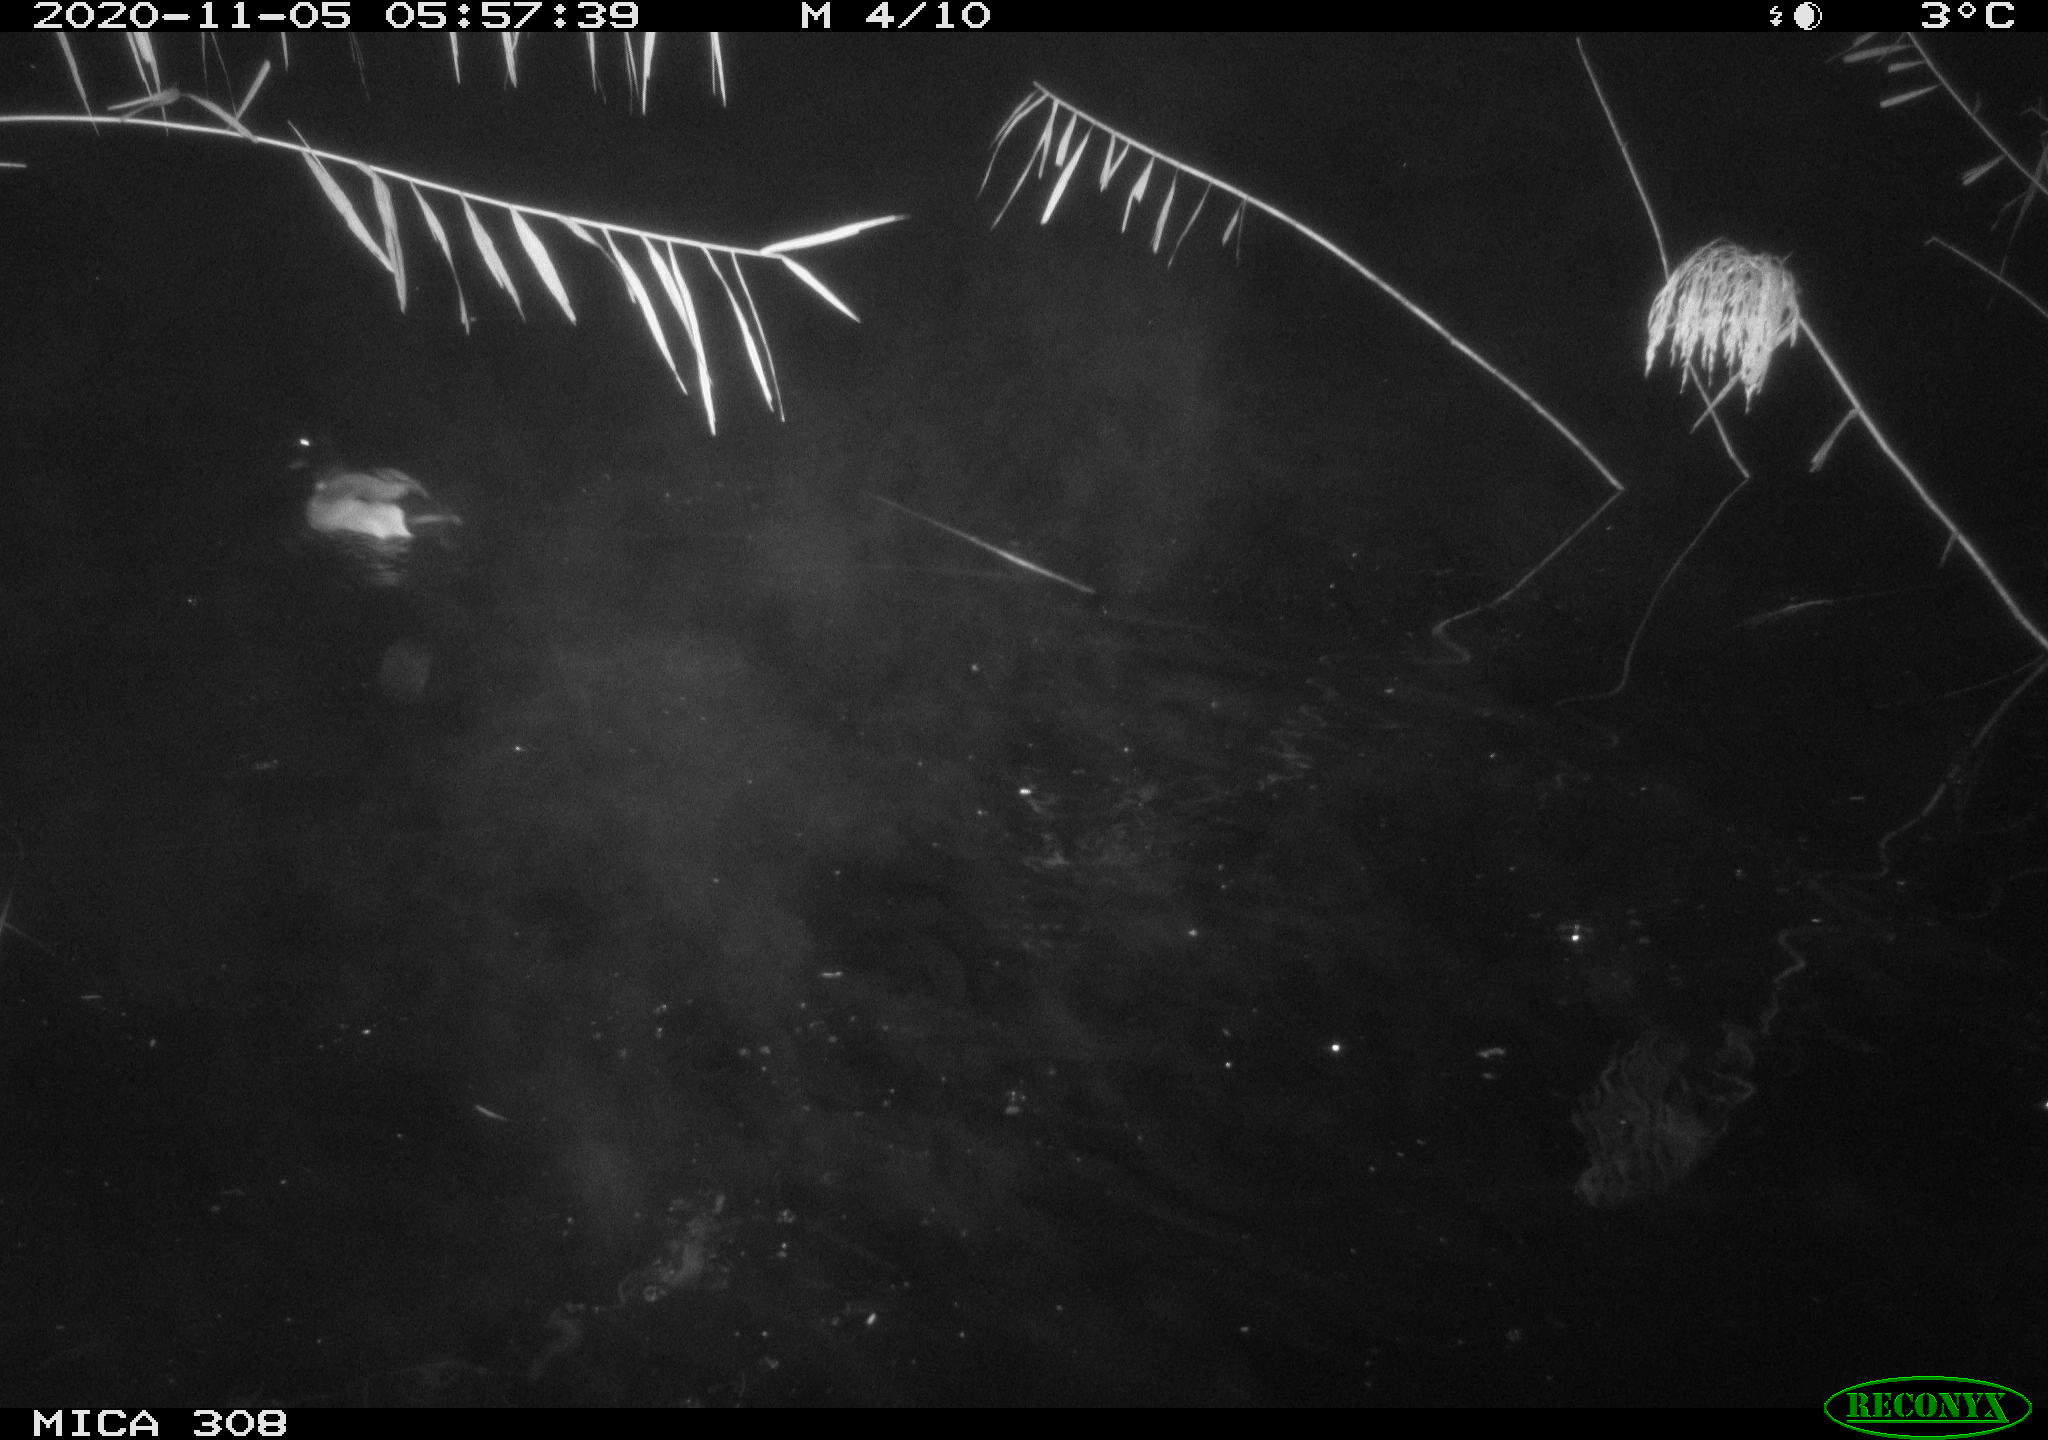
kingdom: Animalia
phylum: Chordata
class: Aves
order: Gruiformes
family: Rallidae
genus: Fulica
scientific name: Fulica atra
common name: Eurasian coot
